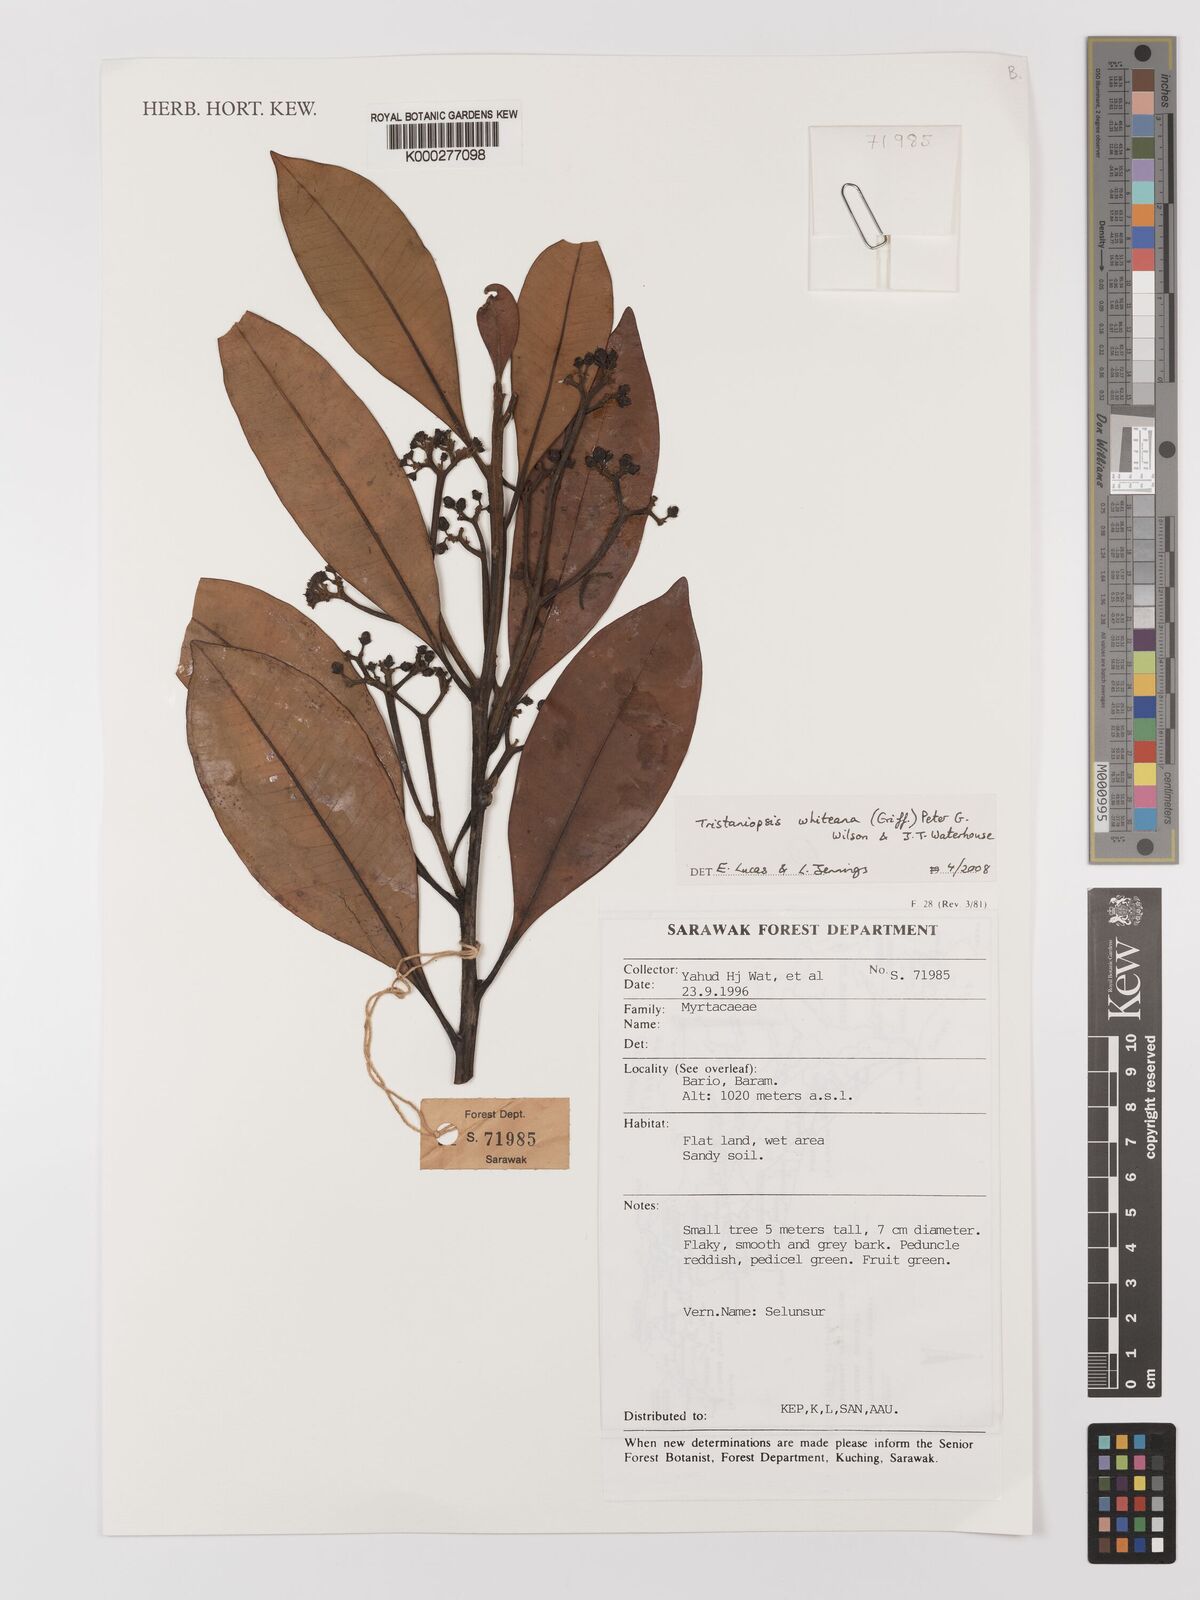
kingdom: Plantae
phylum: Tracheophyta
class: Magnoliopsida
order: Myrtales
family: Myrtaceae
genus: Tristaniopsis
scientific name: Tristaniopsis whiteana
